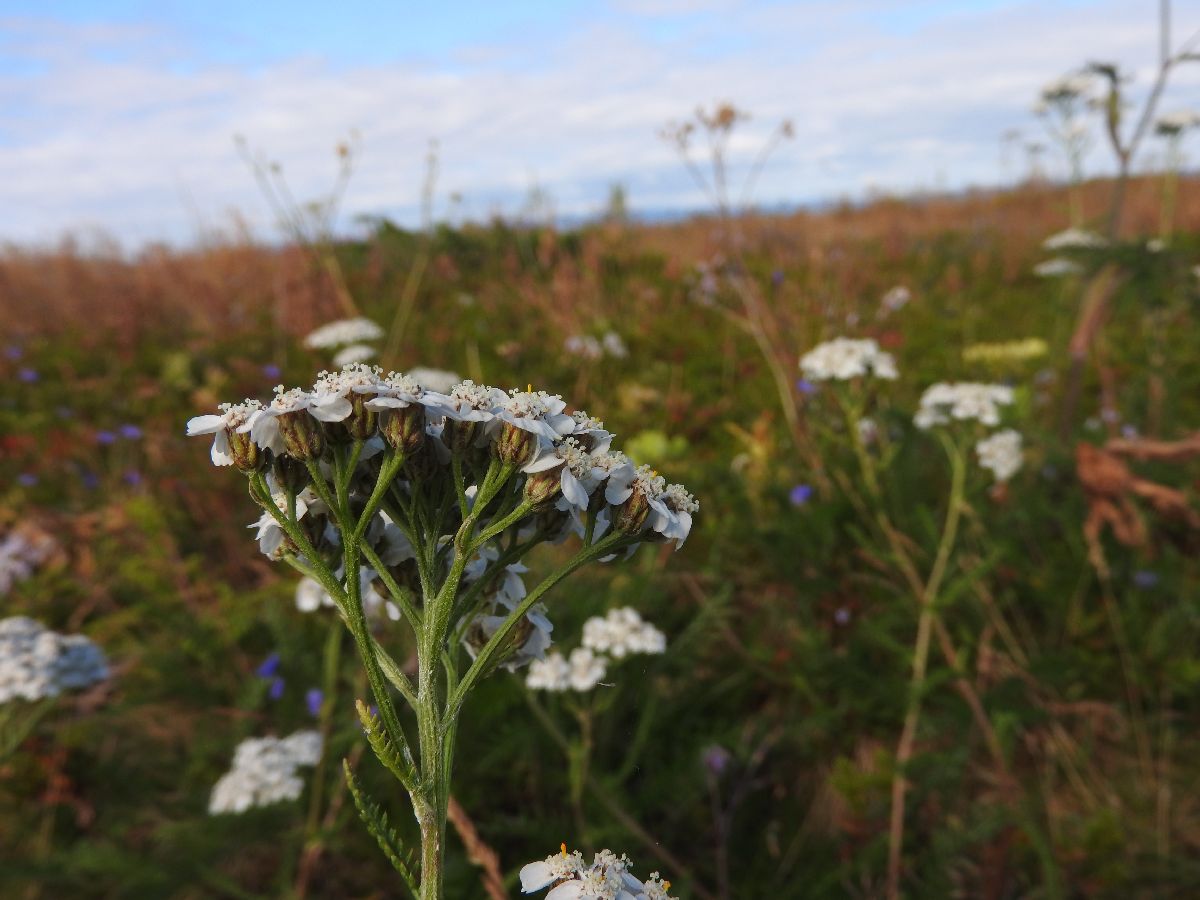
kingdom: Plantae
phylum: Tracheophyta
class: Magnoliopsida
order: Asterales
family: Asteraceae
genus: Achillea
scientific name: Achillea apiculata
